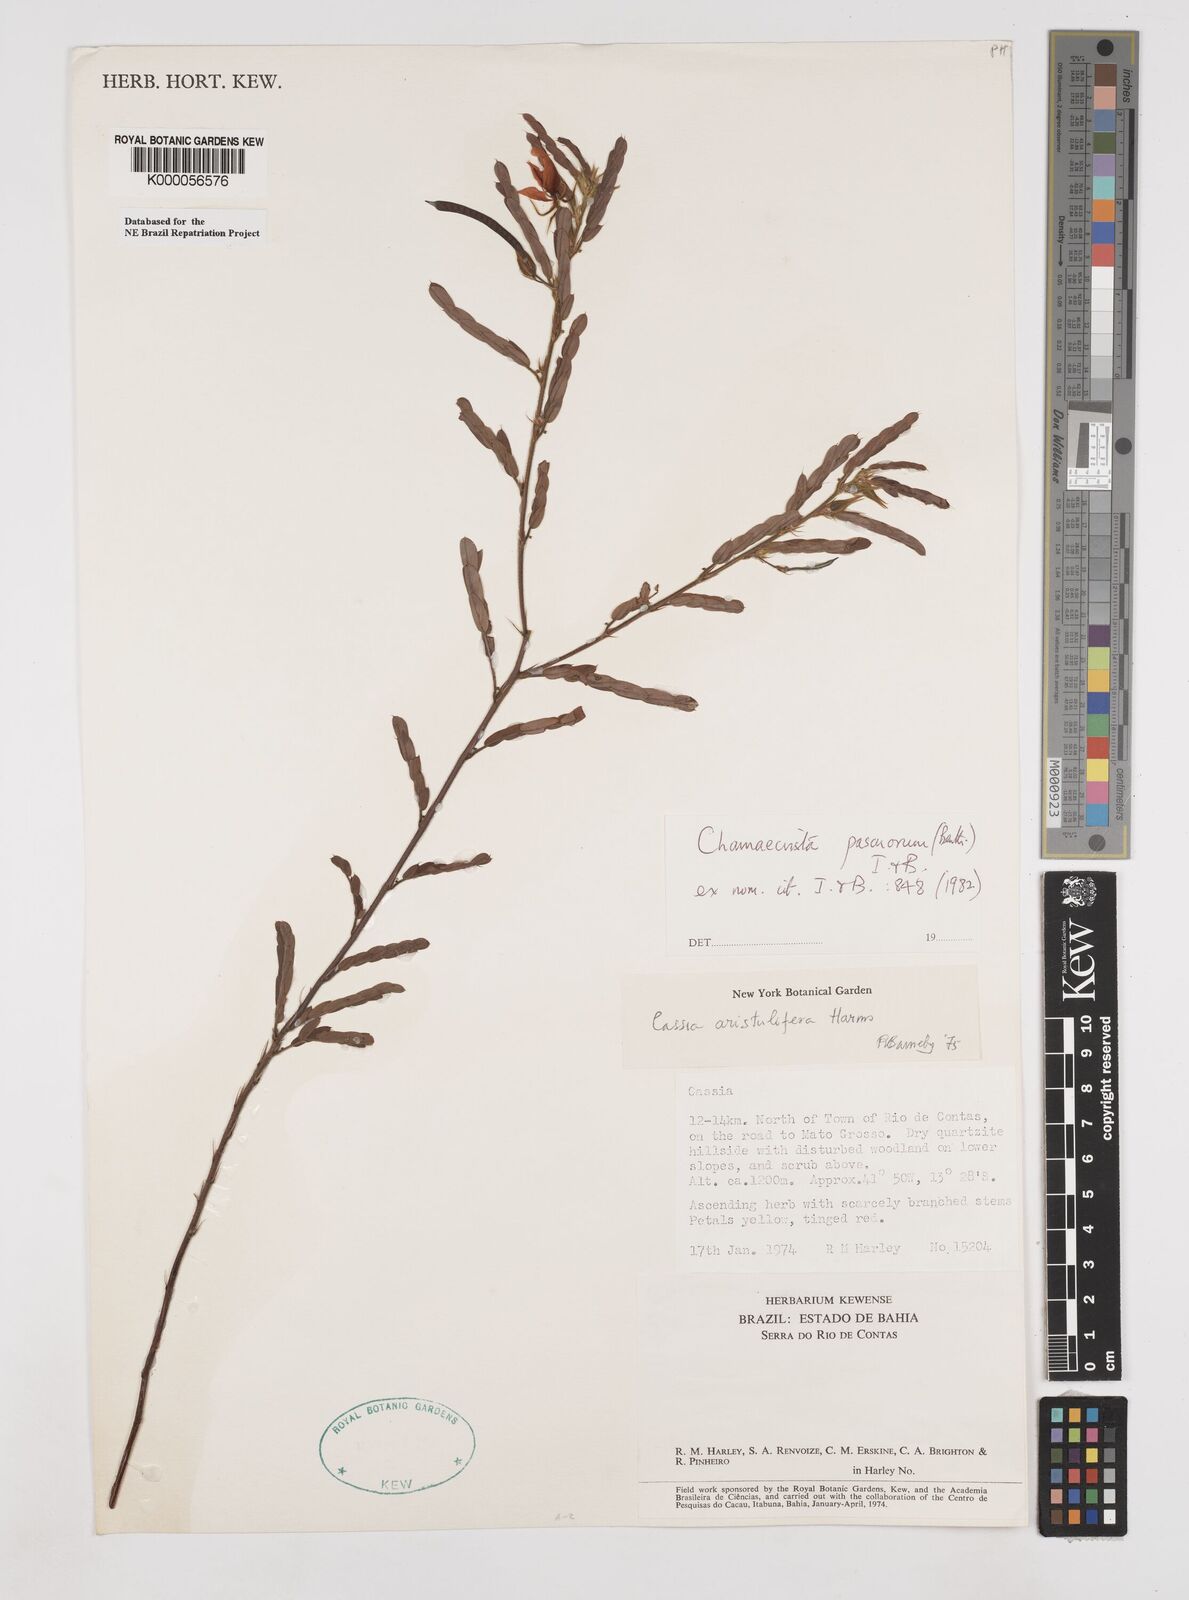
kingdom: Plantae
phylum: Tracheophyta
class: Magnoliopsida
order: Fabales
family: Fabaceae
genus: Chamaecrista
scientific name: Chamaecrista pascuorum
